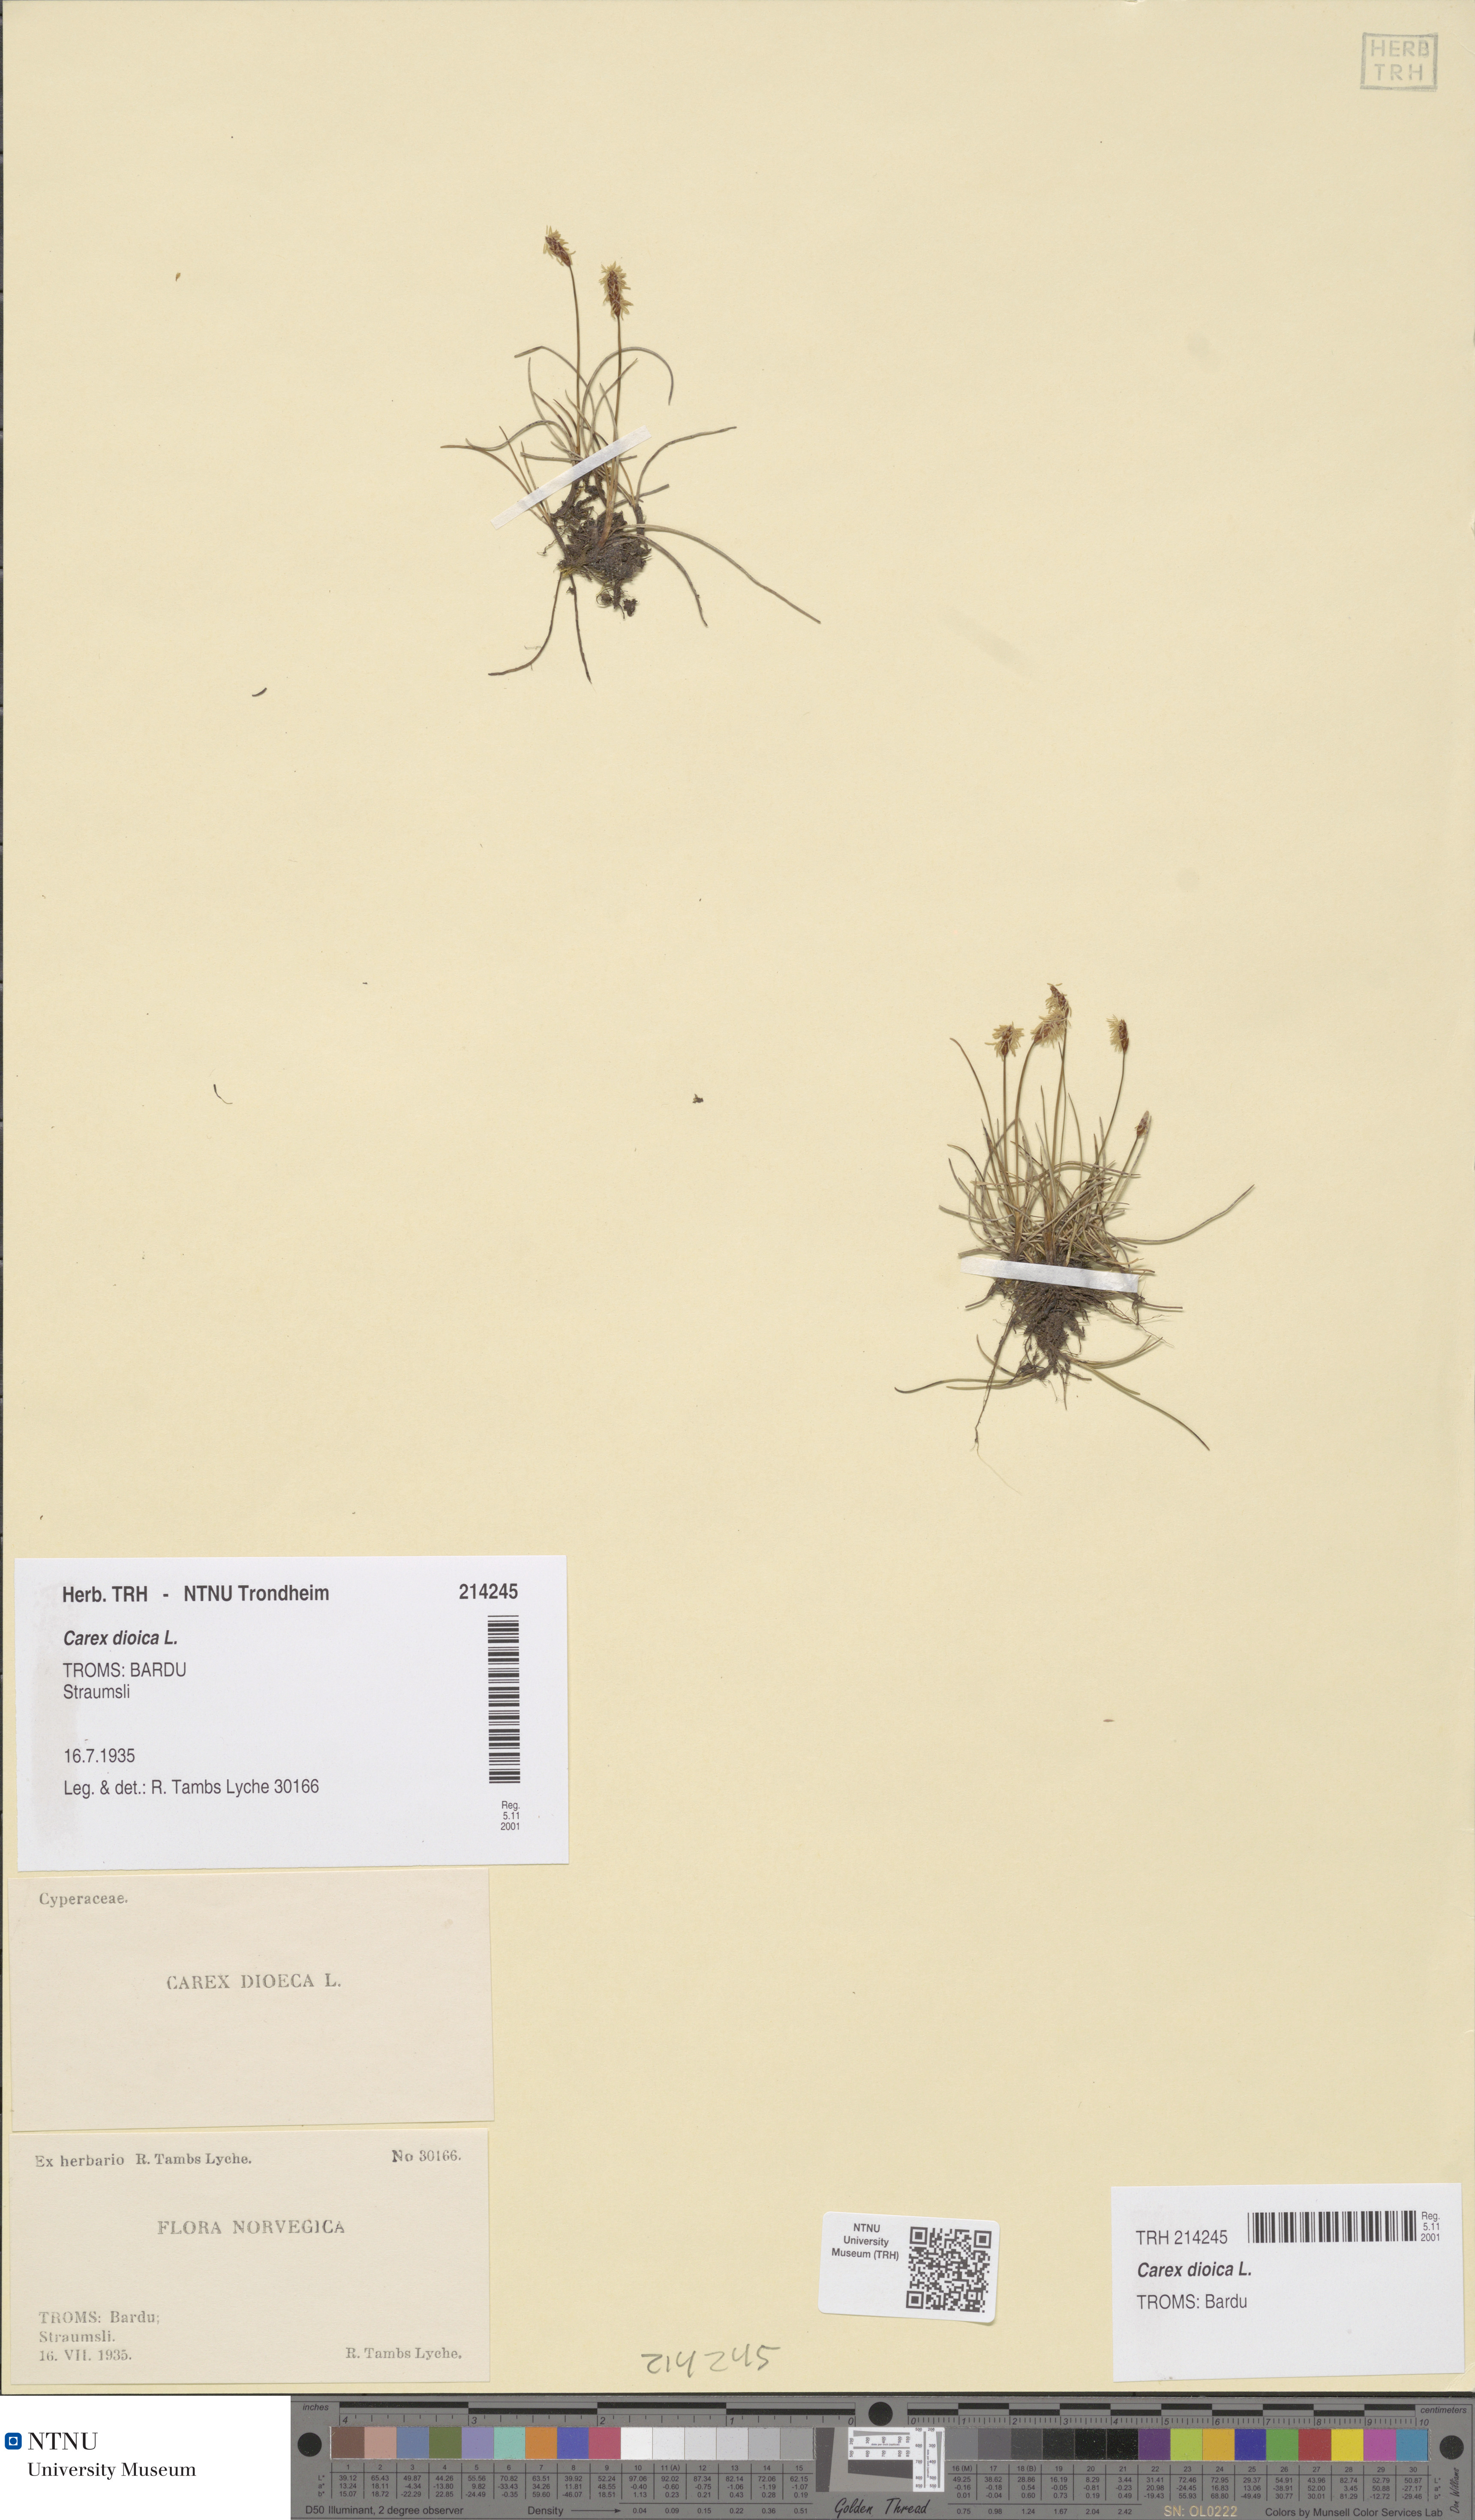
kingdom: Plantae
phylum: Tracheophyta
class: Liliopsida
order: Poales
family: Cyperaceae
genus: Carex
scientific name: Carex dioica
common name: Dioecious sedge
